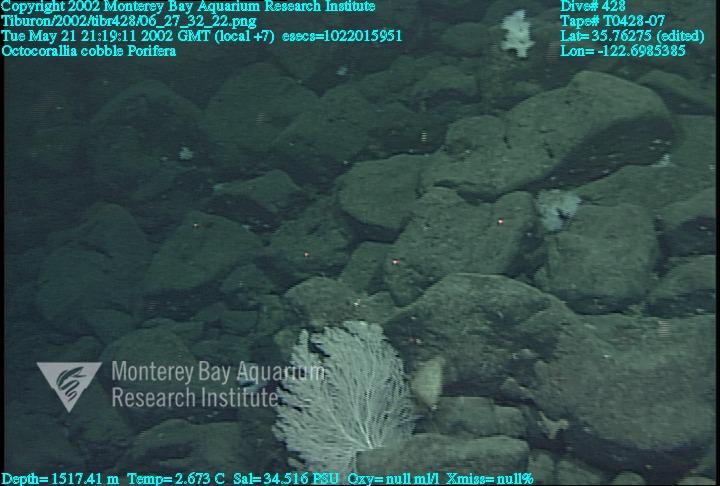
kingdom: Animalia
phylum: Porifera
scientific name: Porifera
